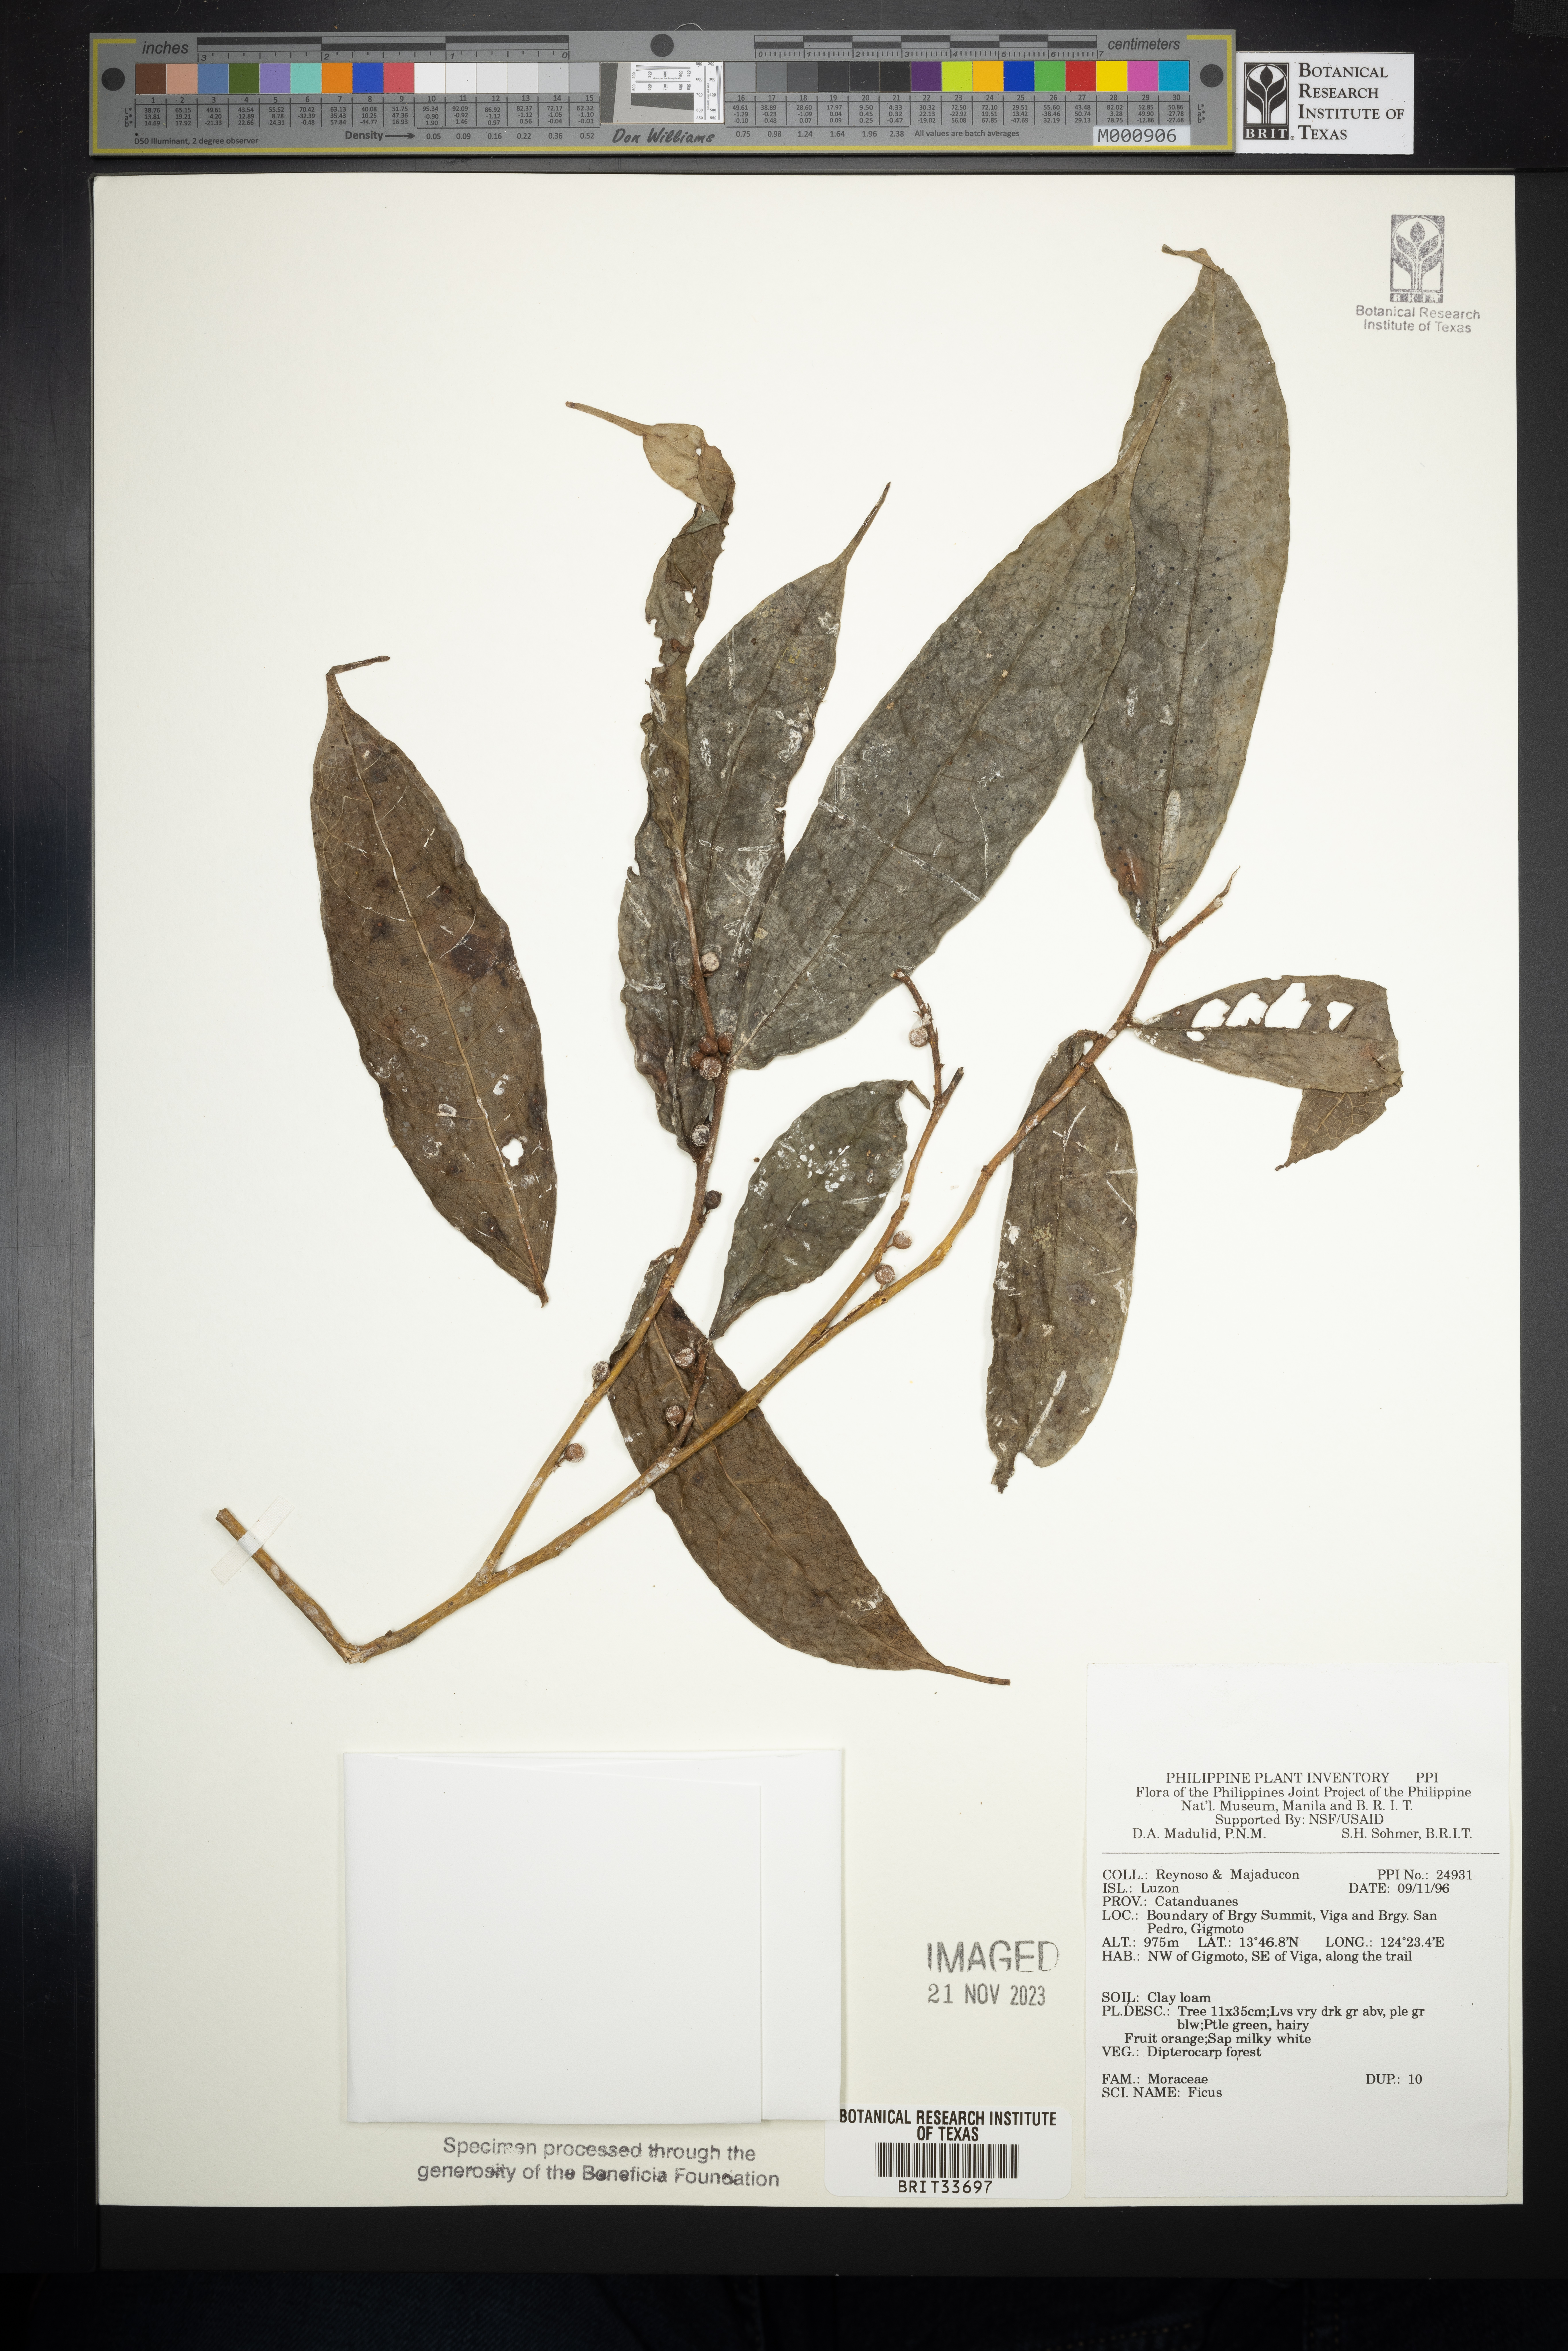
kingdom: Plantae
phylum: Tracheophyta
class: Magnoliopsida
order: Rosales
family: Moraceae
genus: Ficus
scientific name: Ficus
